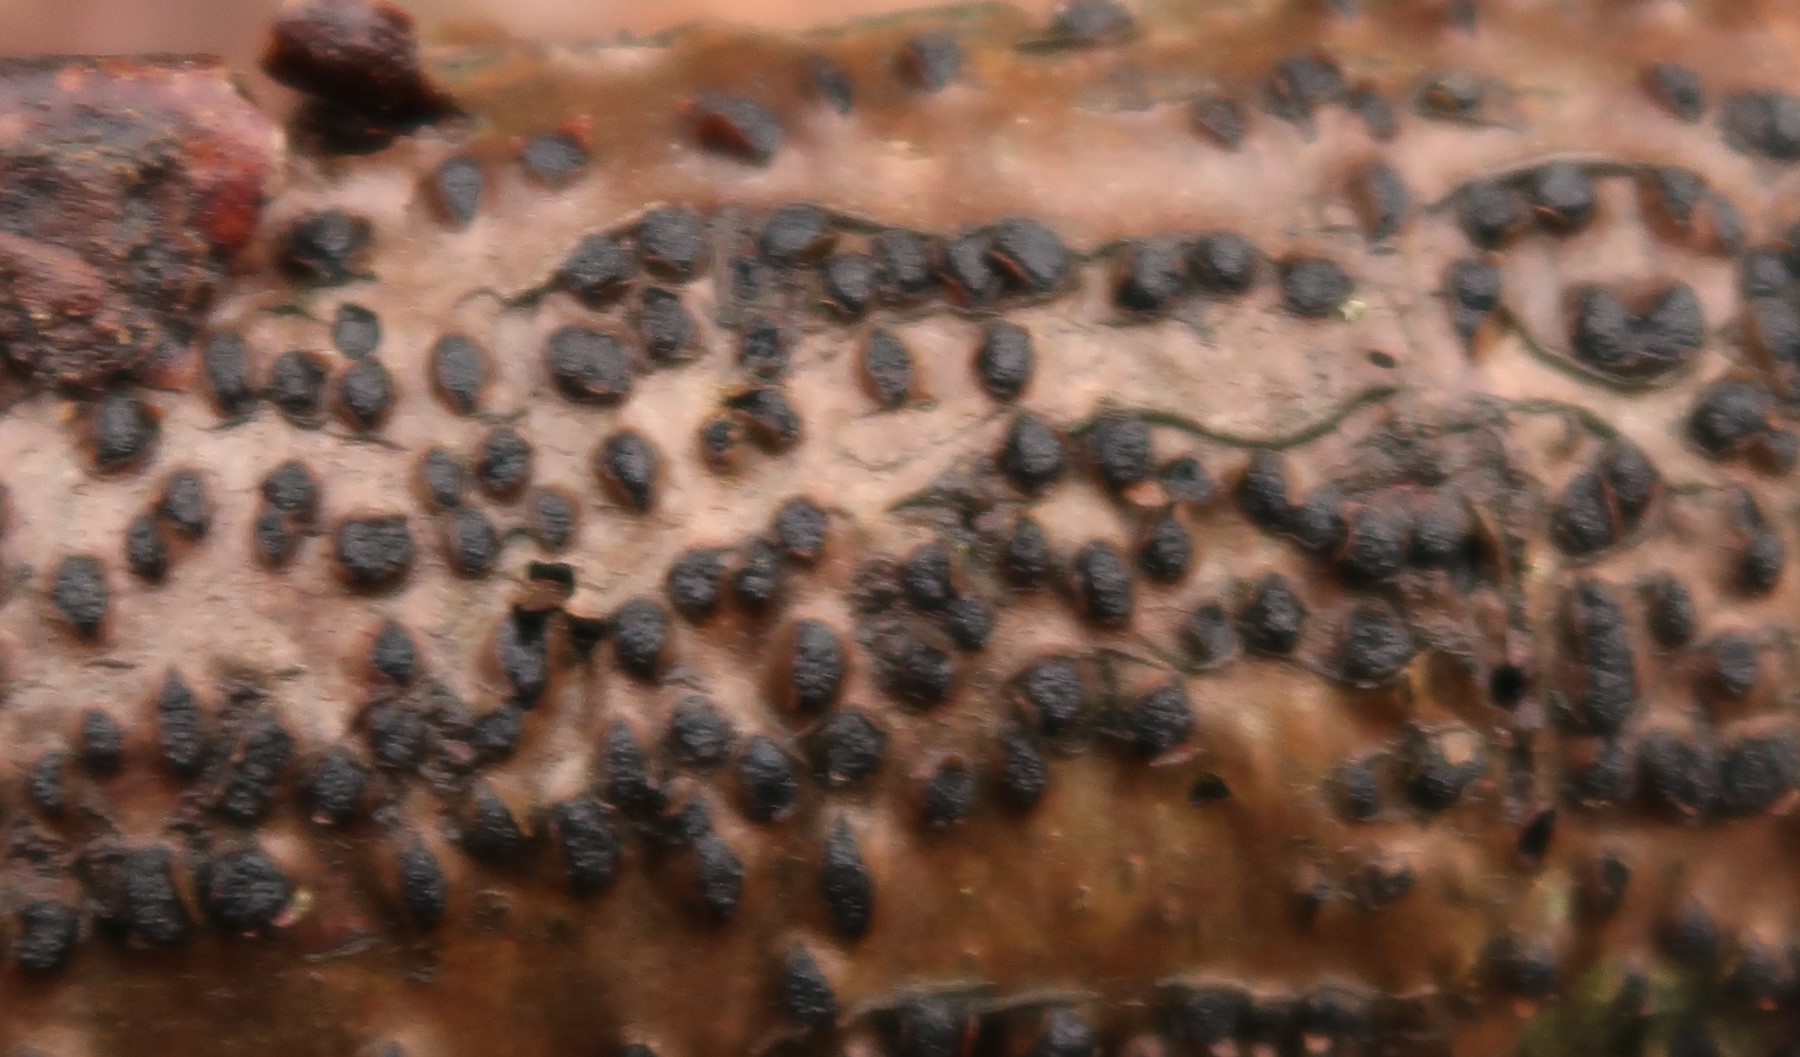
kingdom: Fungi
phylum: Ascomycota
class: Sordariomycetes
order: Xylariales
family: Diatrypaceae
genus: Diatrype
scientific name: Diatrype disciformis
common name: kant-kulskorpe
